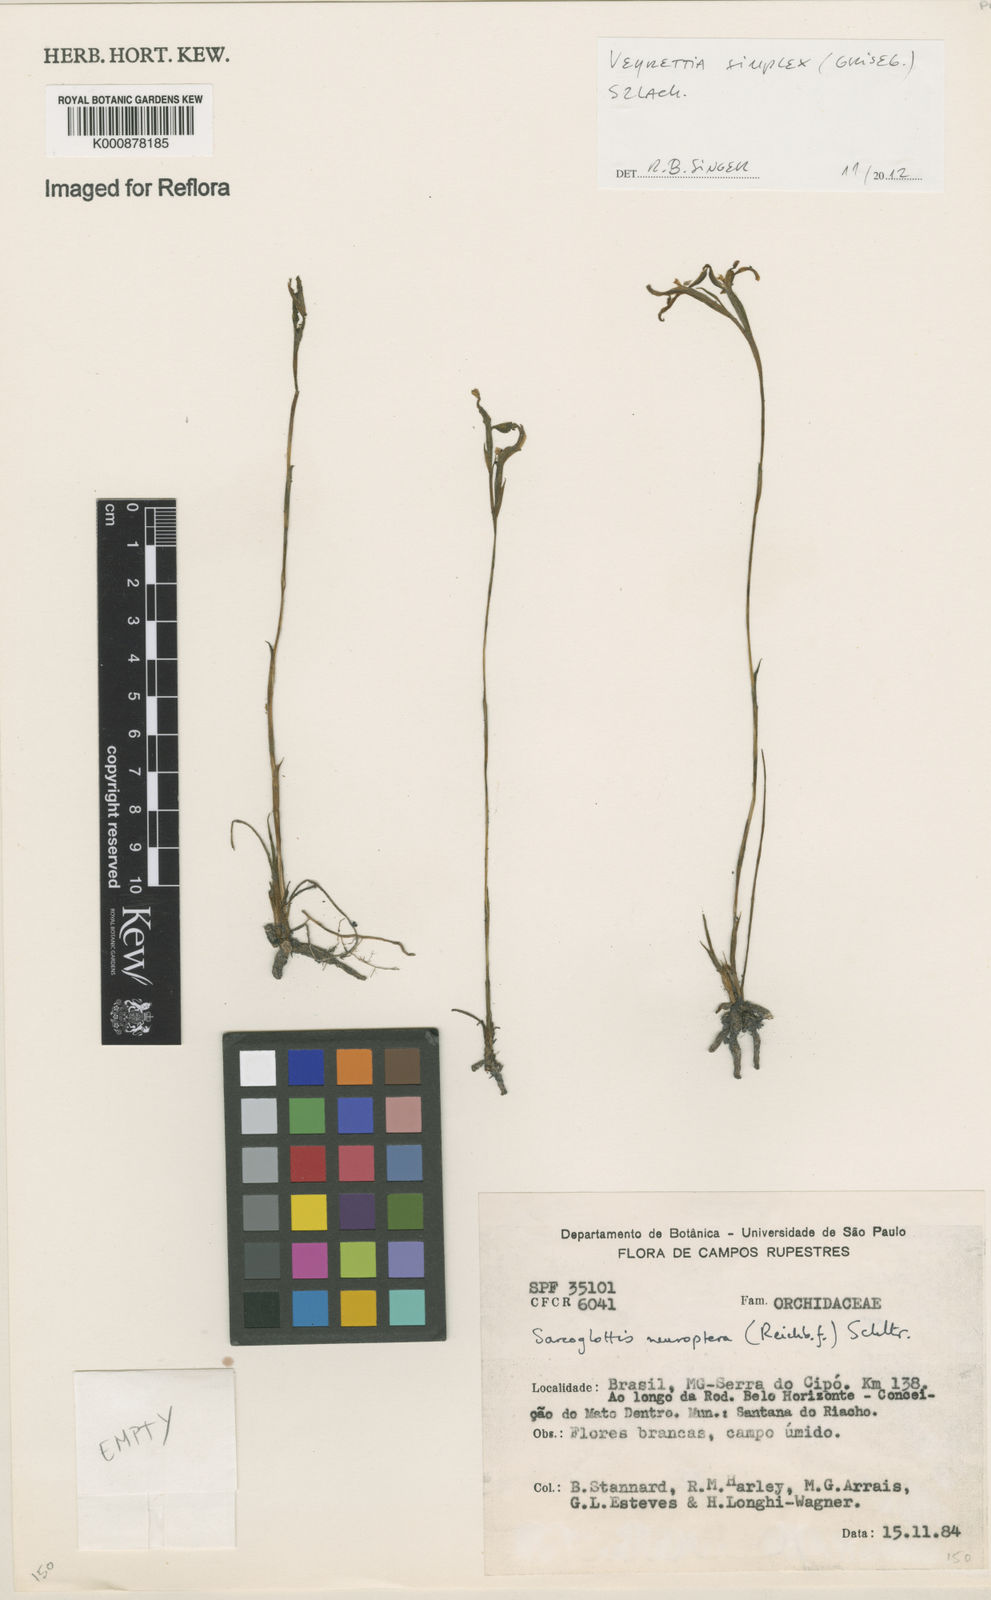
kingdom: Plantae
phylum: Tracheophyta
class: Liliopsida
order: Asparagales
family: Orchidaceae
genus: Veyretia
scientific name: Veyretia simplex
